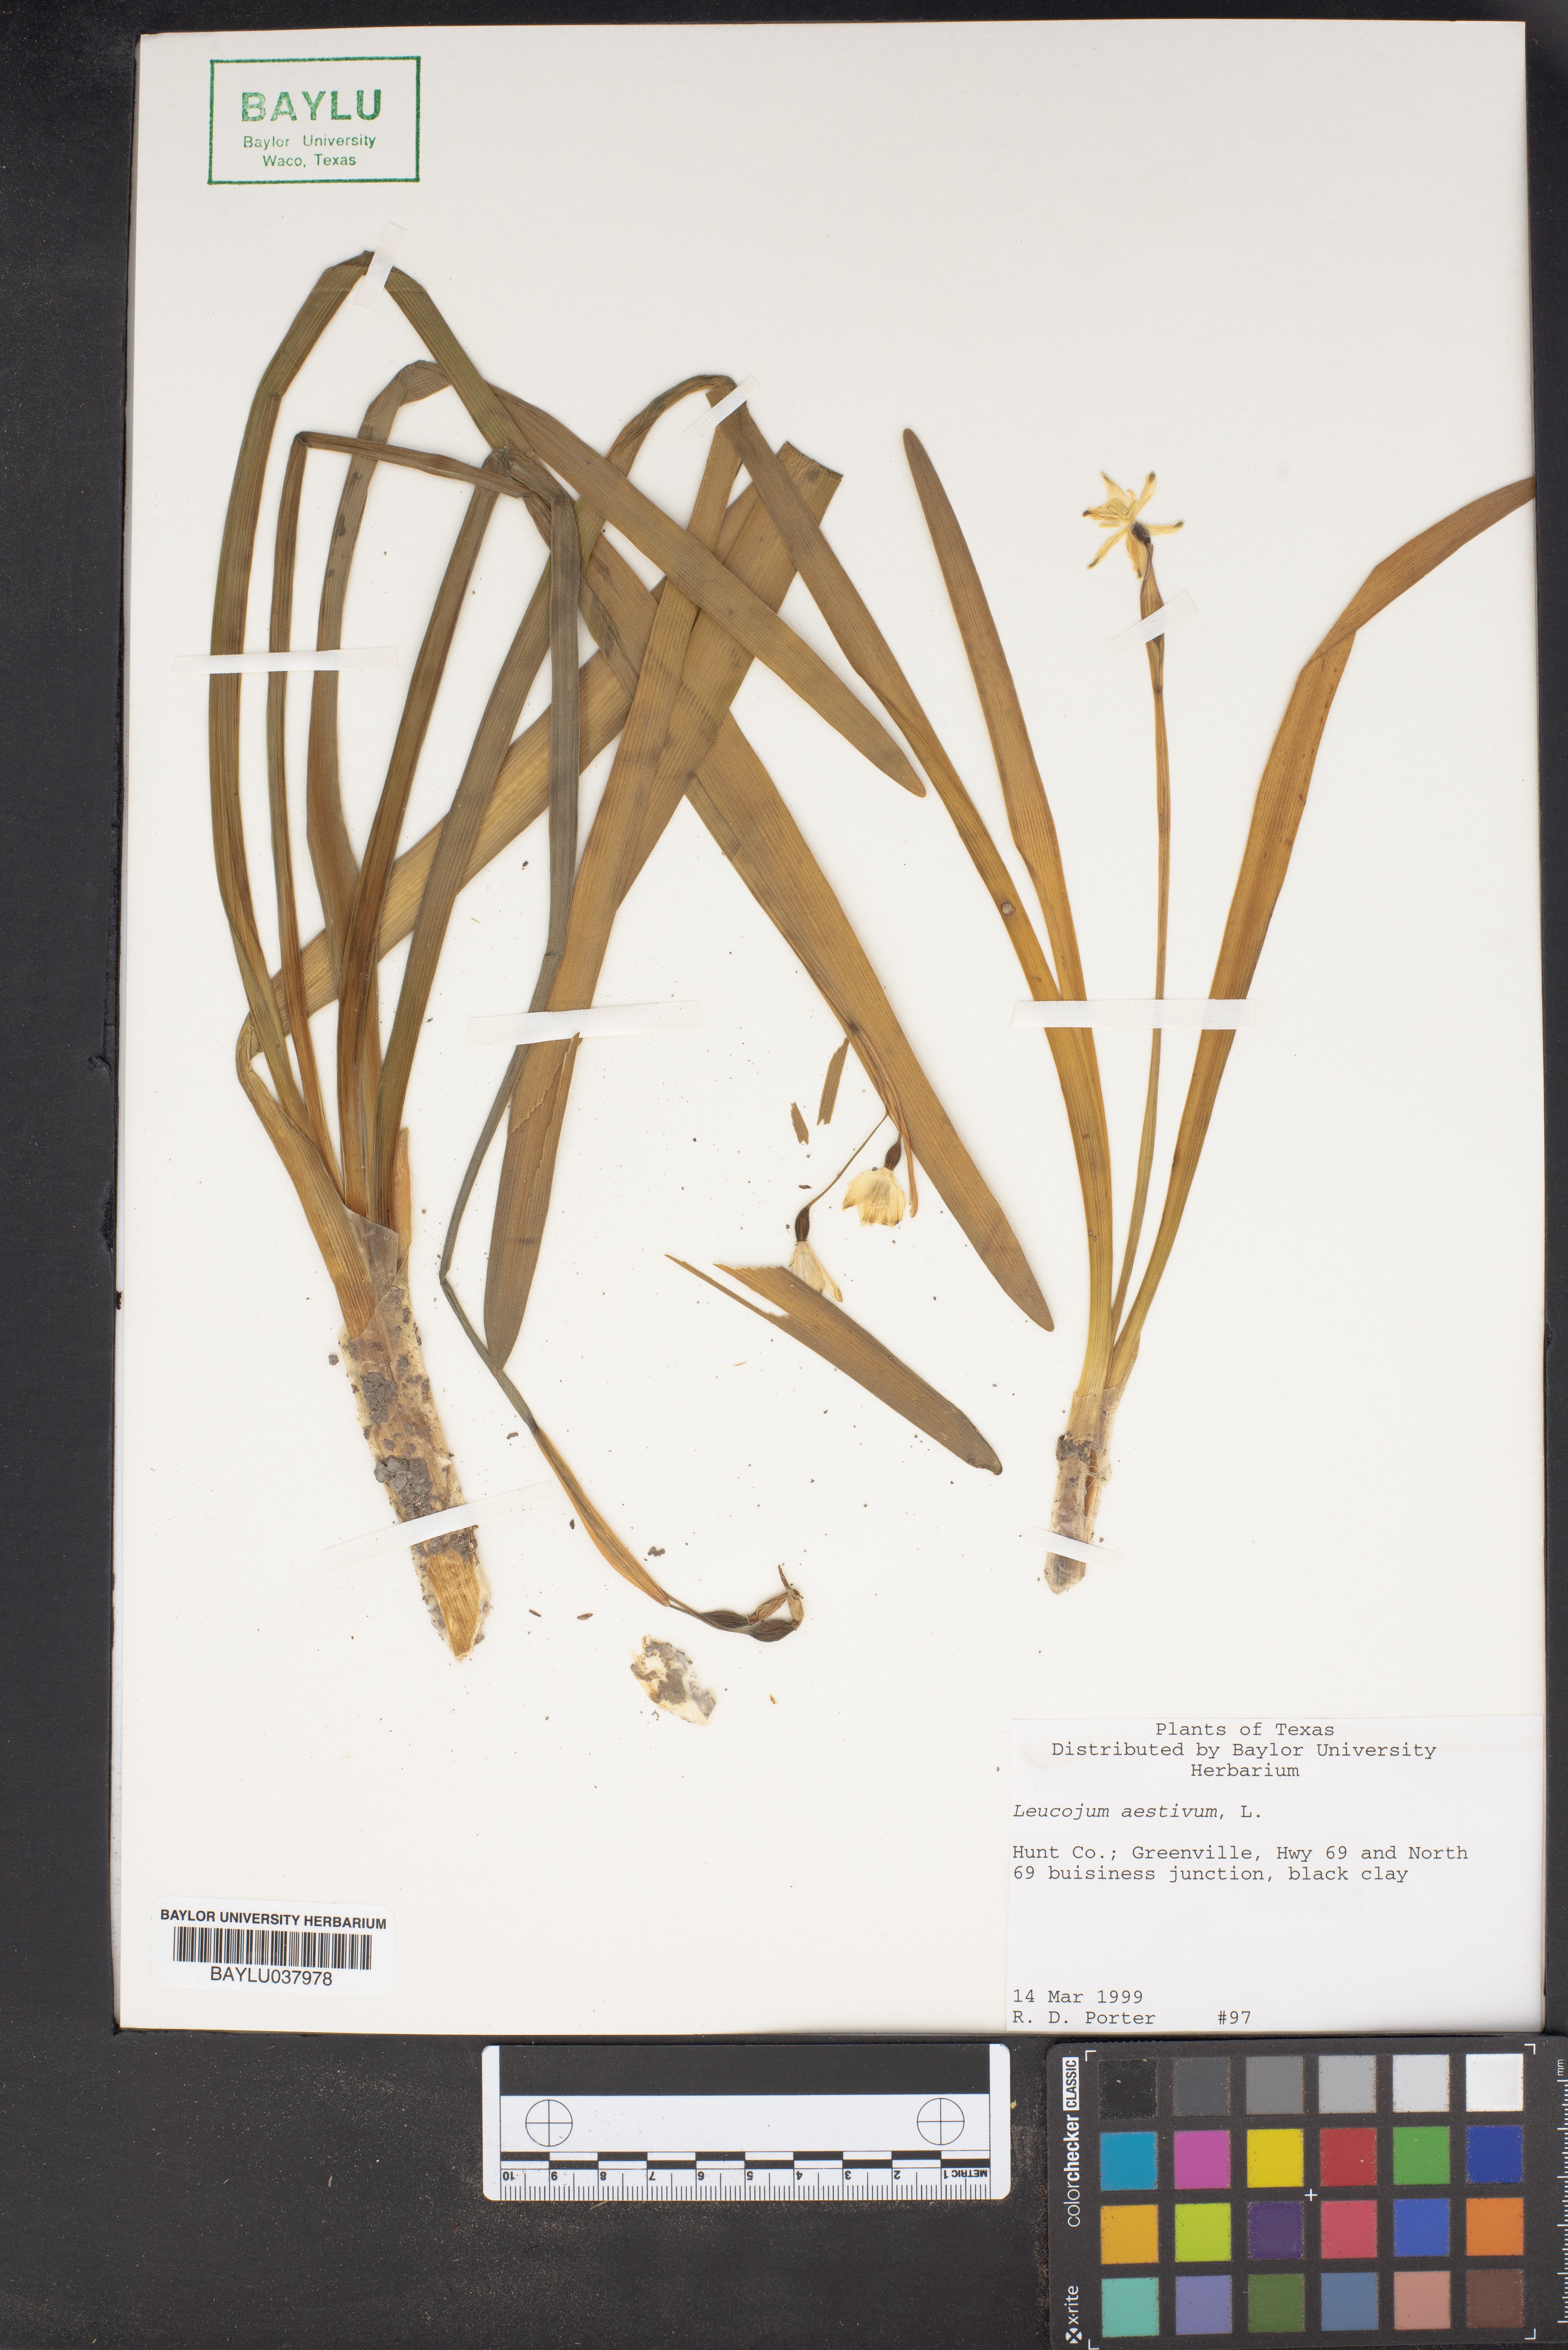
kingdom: Plantae
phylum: Tracheophyta
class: Liliopsida
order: Asparagales
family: Amaryllidaceae
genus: Leucojum
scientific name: Leucojum aestivum
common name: Summer snowflake
